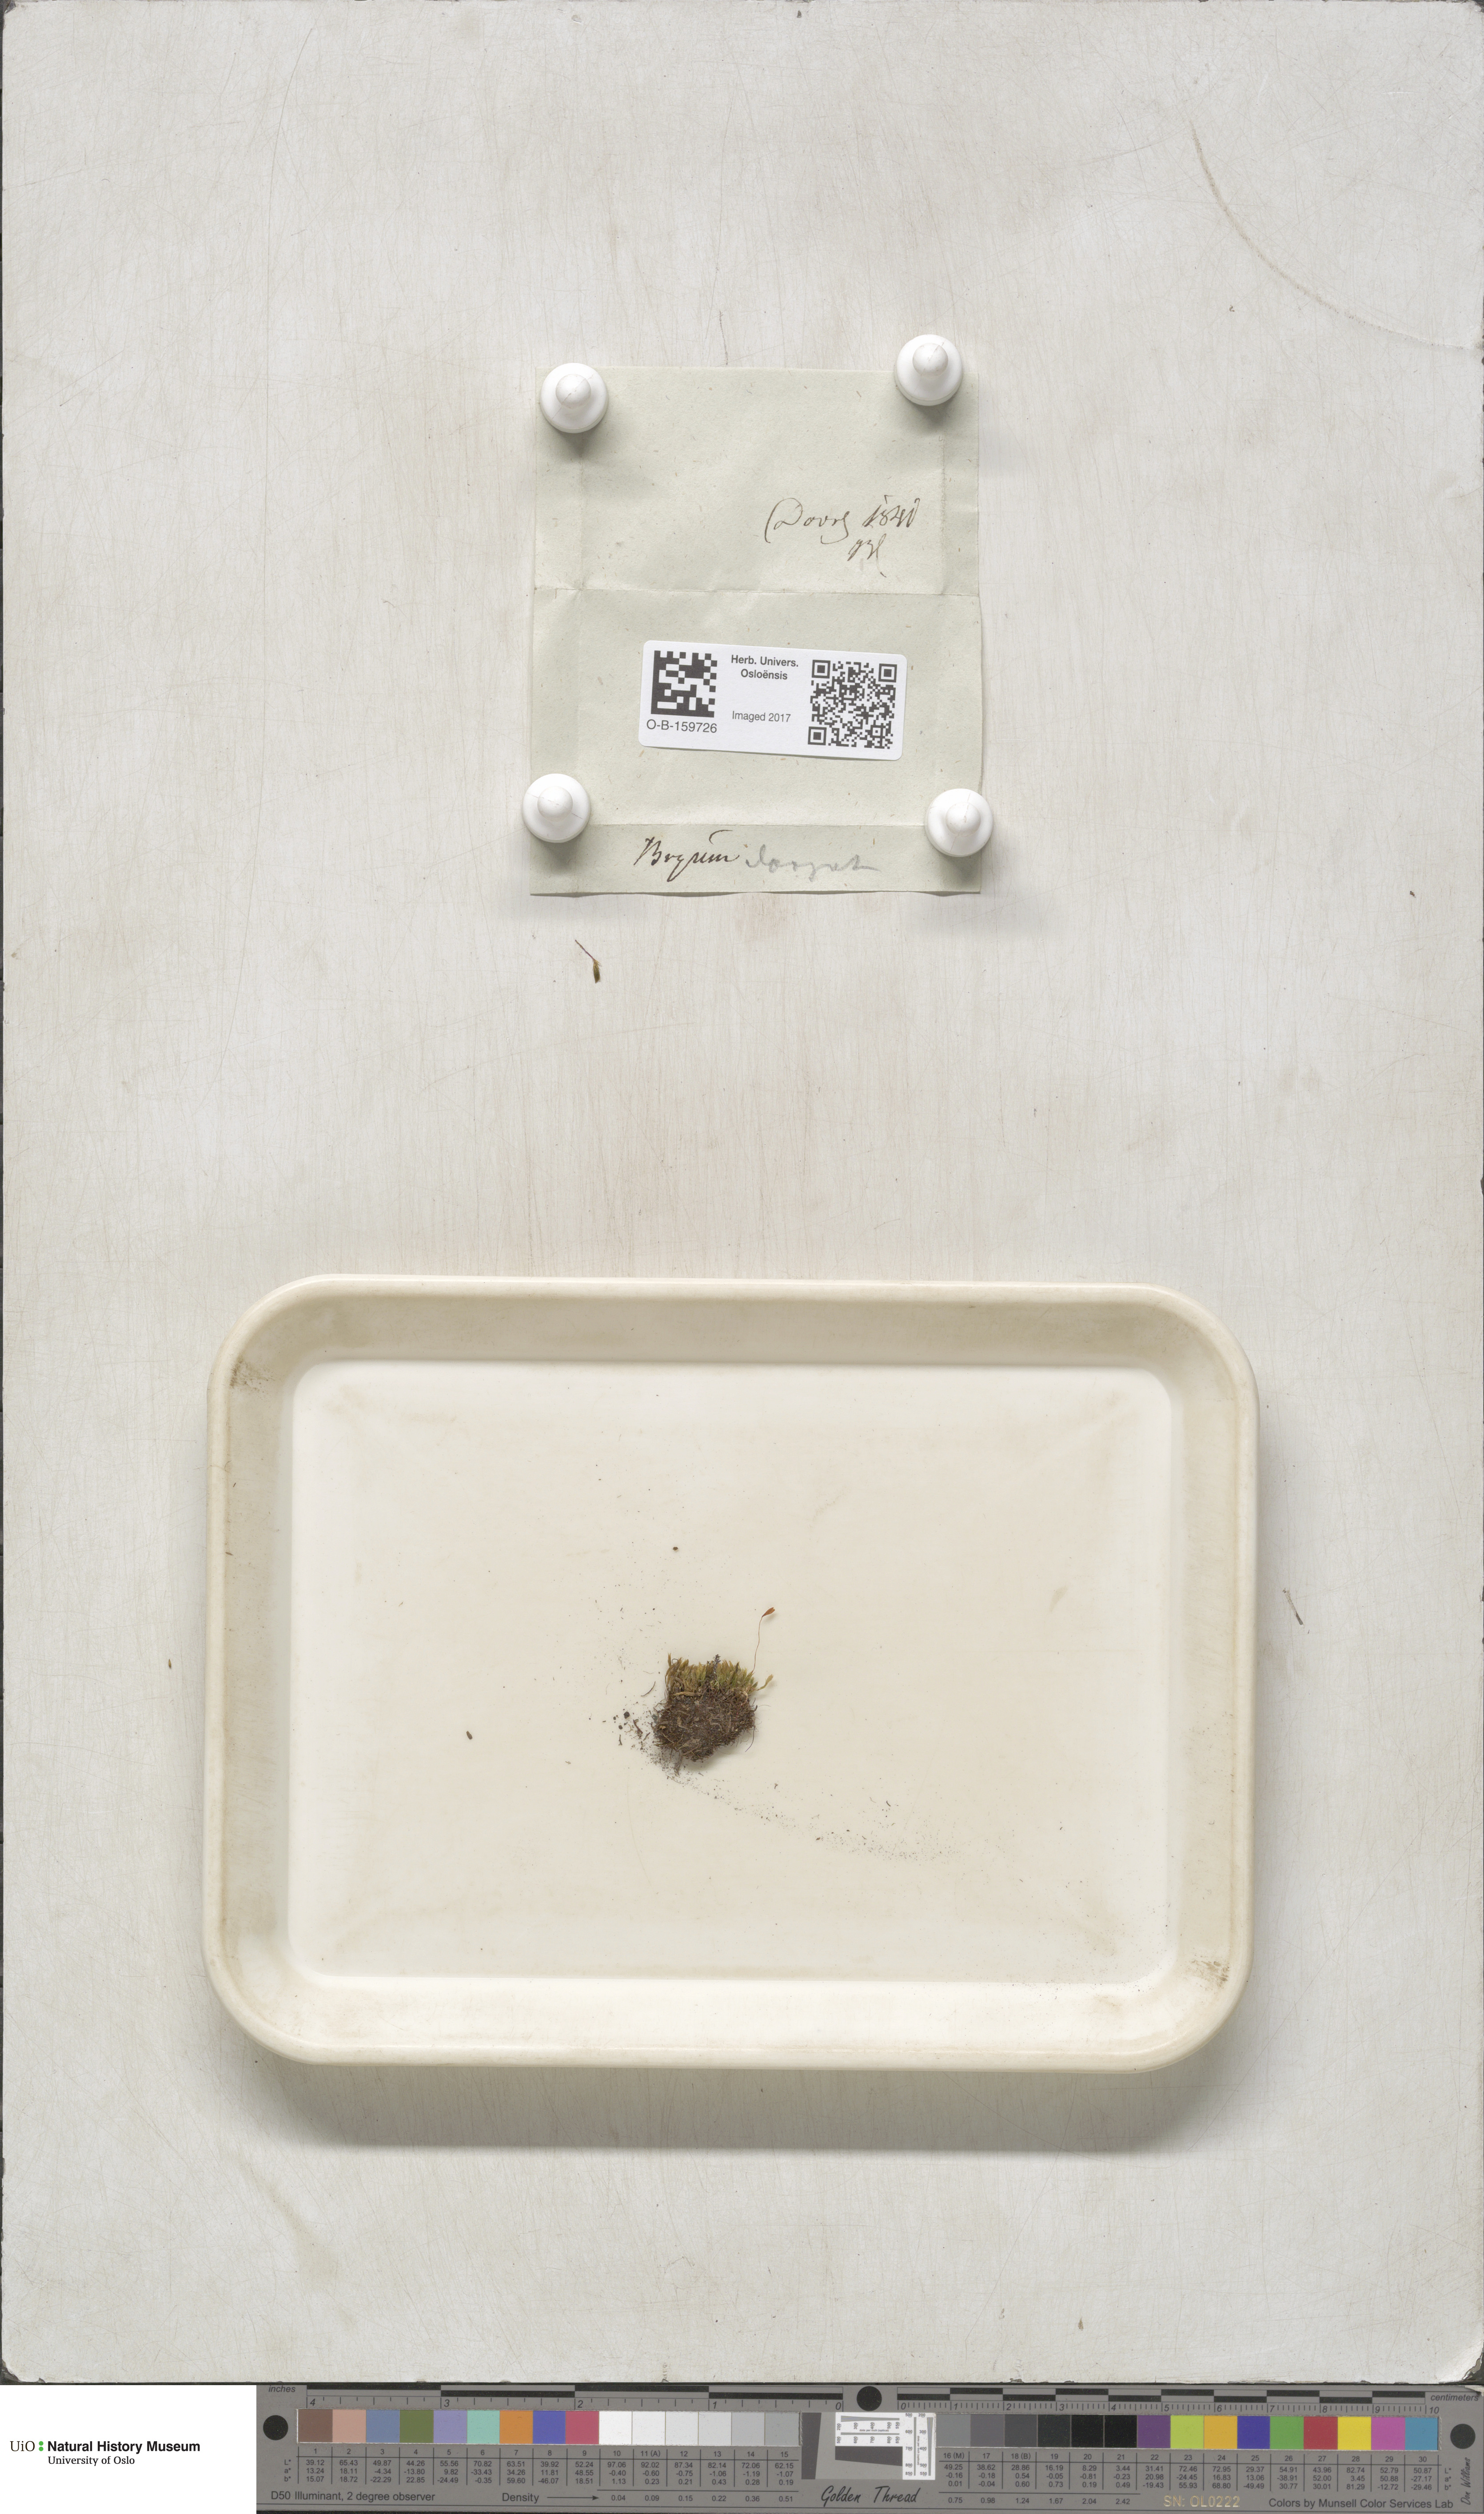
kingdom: Plantae
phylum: Bryophyta
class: Bryopsida
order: Bryales
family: Mniaceae
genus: Pohlia
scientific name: Pohlia elongata
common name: Long-fruited thread-moss
